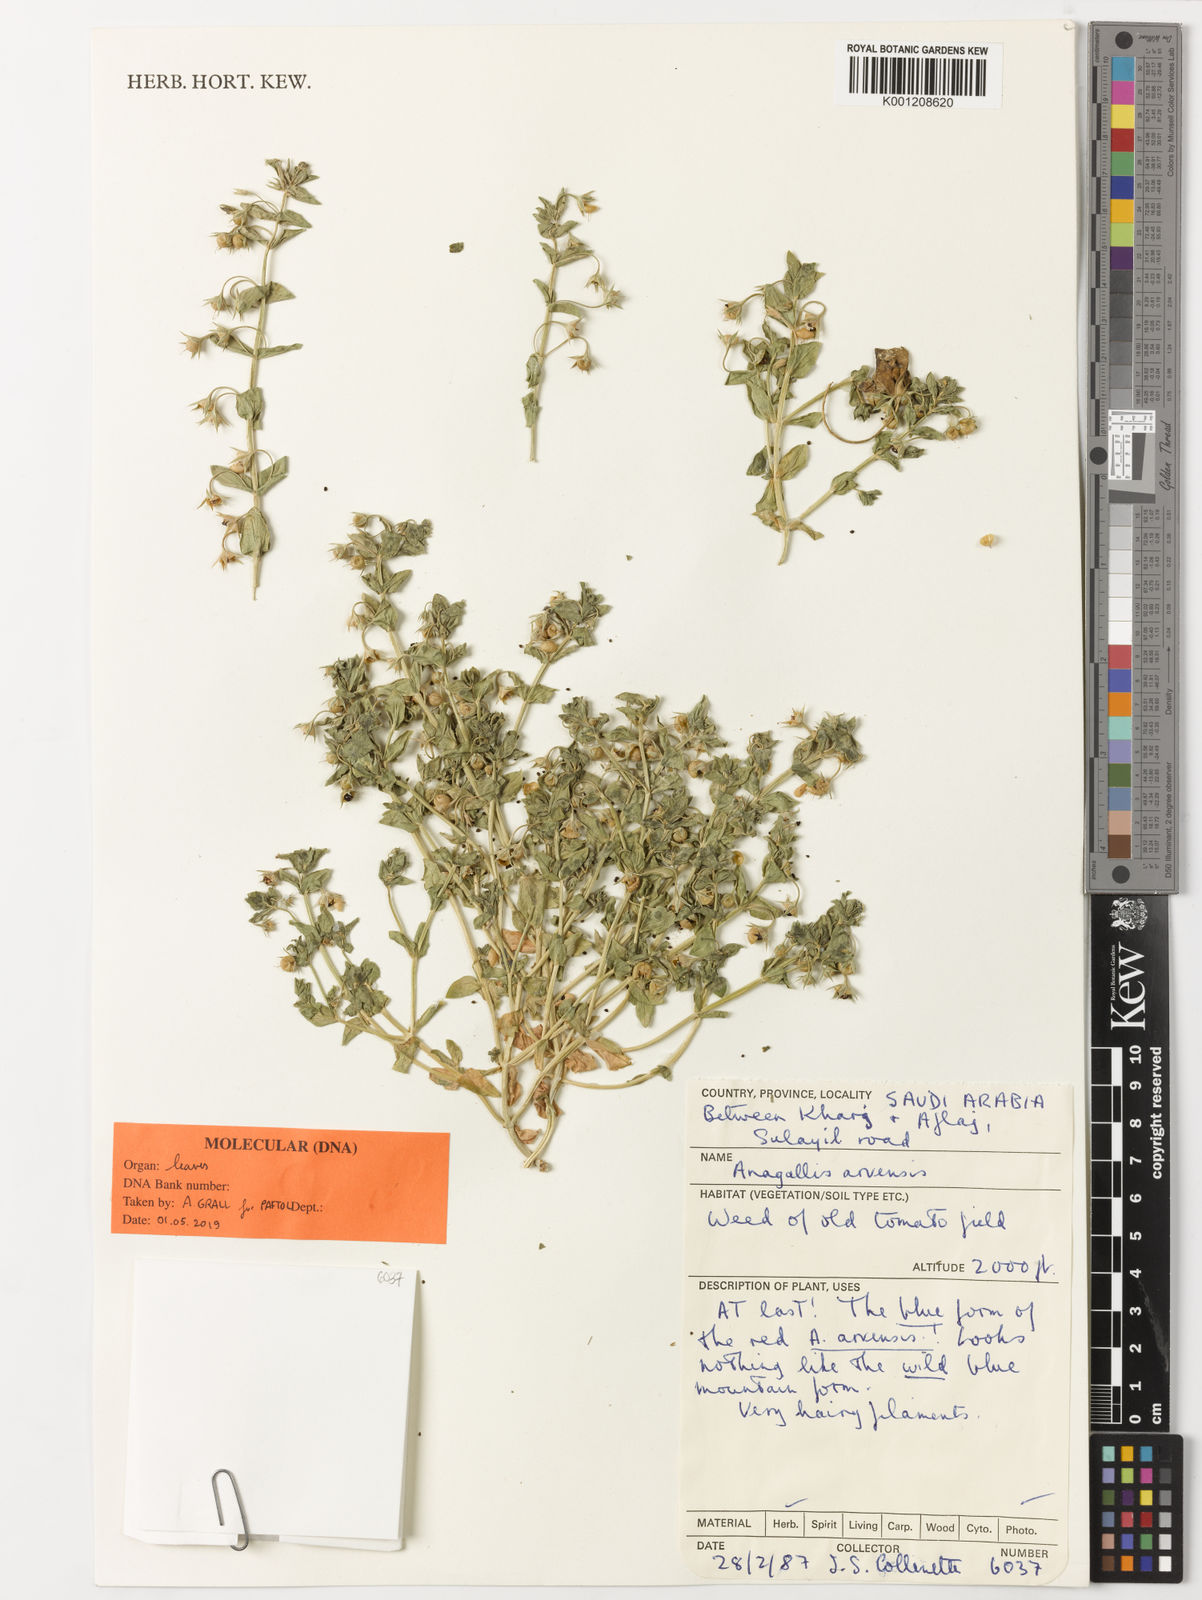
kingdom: Plantae
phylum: Tracheophyta
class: Magnoliopsida
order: Ericales
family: Primulaceae
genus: Lysimachia
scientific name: Lysimachia arvensis
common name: Scarlet pimpernel
